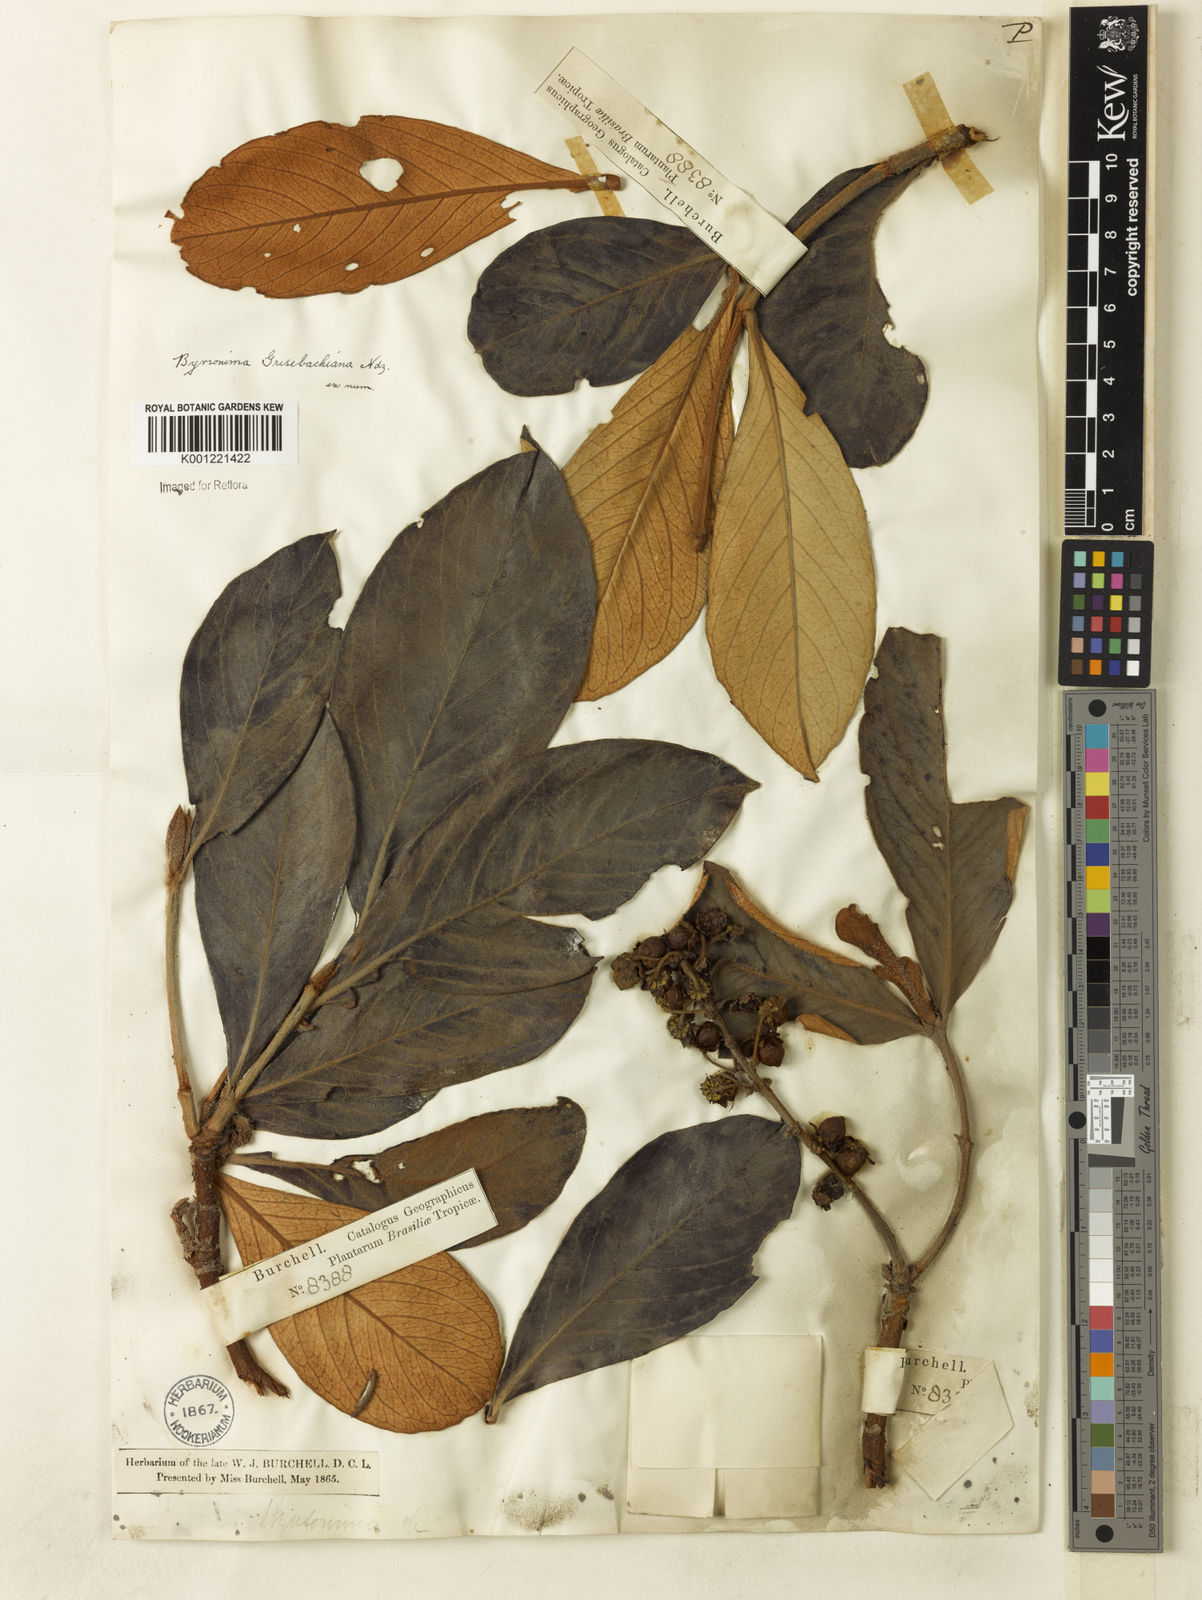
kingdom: Plantae
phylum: Tracheophyta
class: Magnoliopsida
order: Malpighiales
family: Malpighiaceae
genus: Byrsonima
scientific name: Byrsonima pachyphylla
